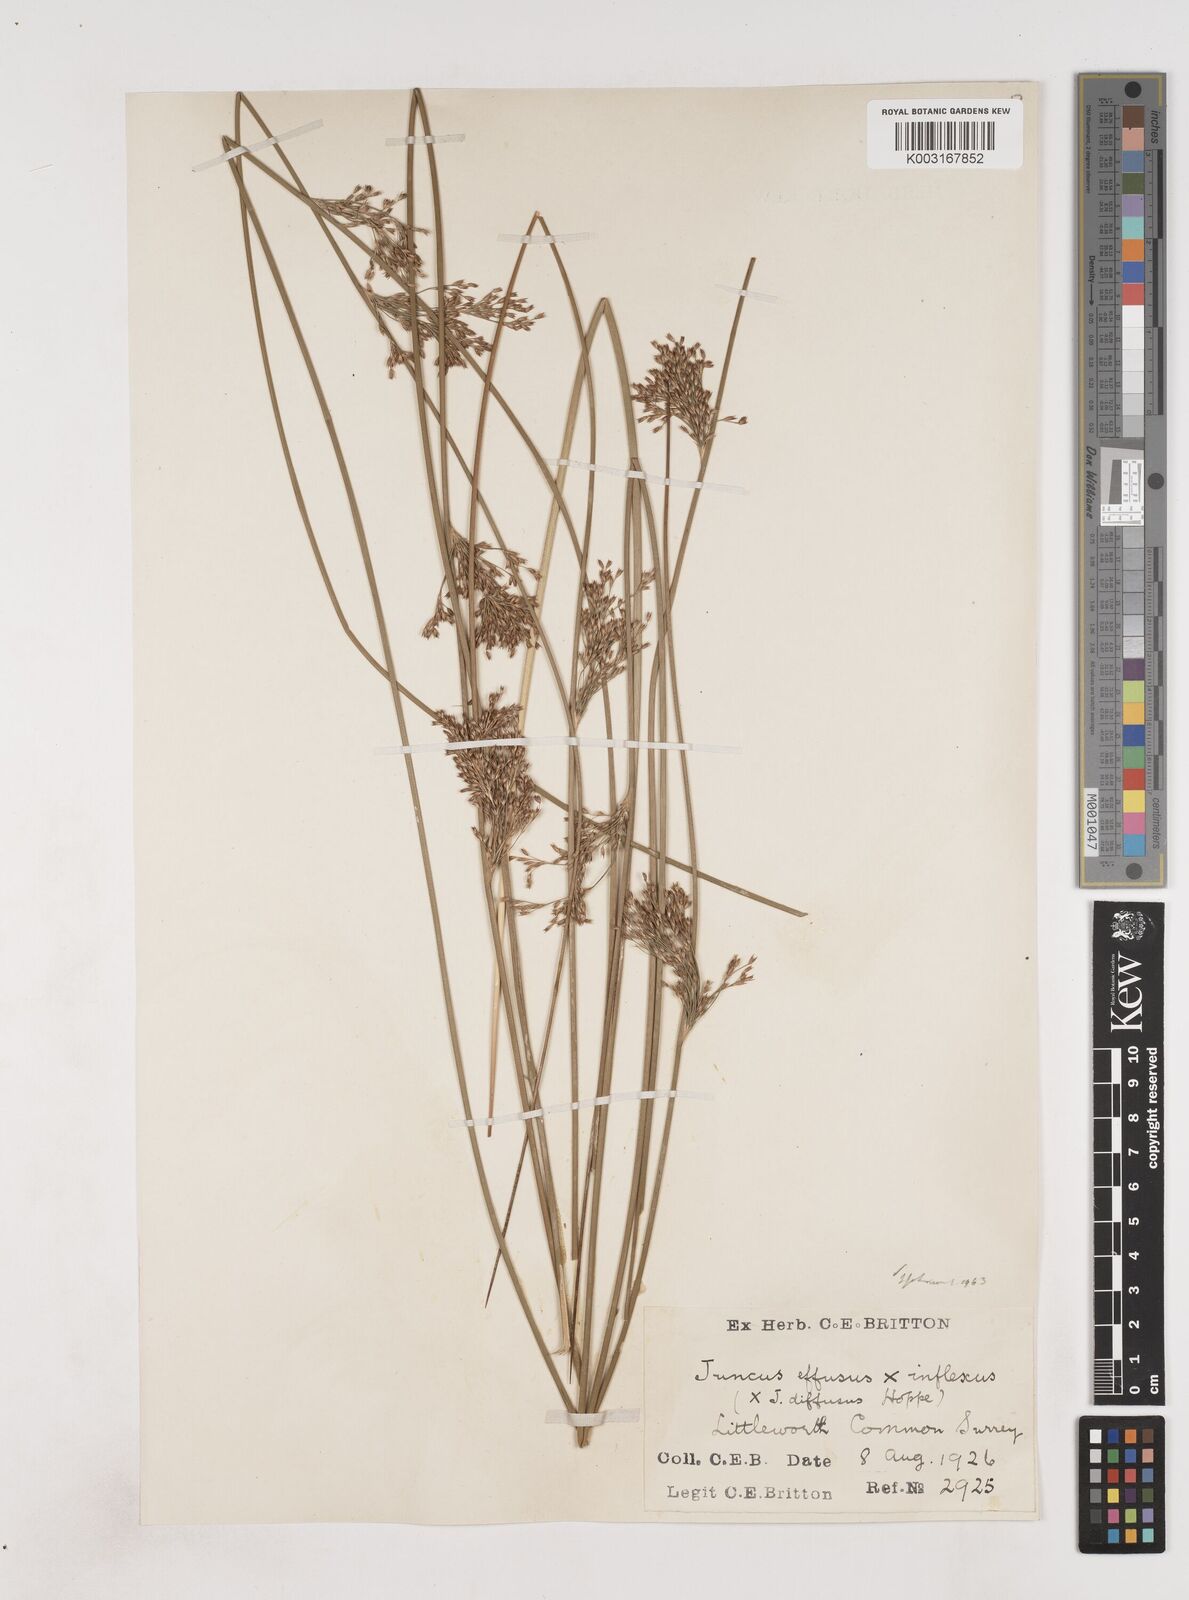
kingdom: Plantae
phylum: Tracheophyta
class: Liliopsida
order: Poales
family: Juncaceae
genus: Juncus
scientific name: Juncus effusus
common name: Soft rush
